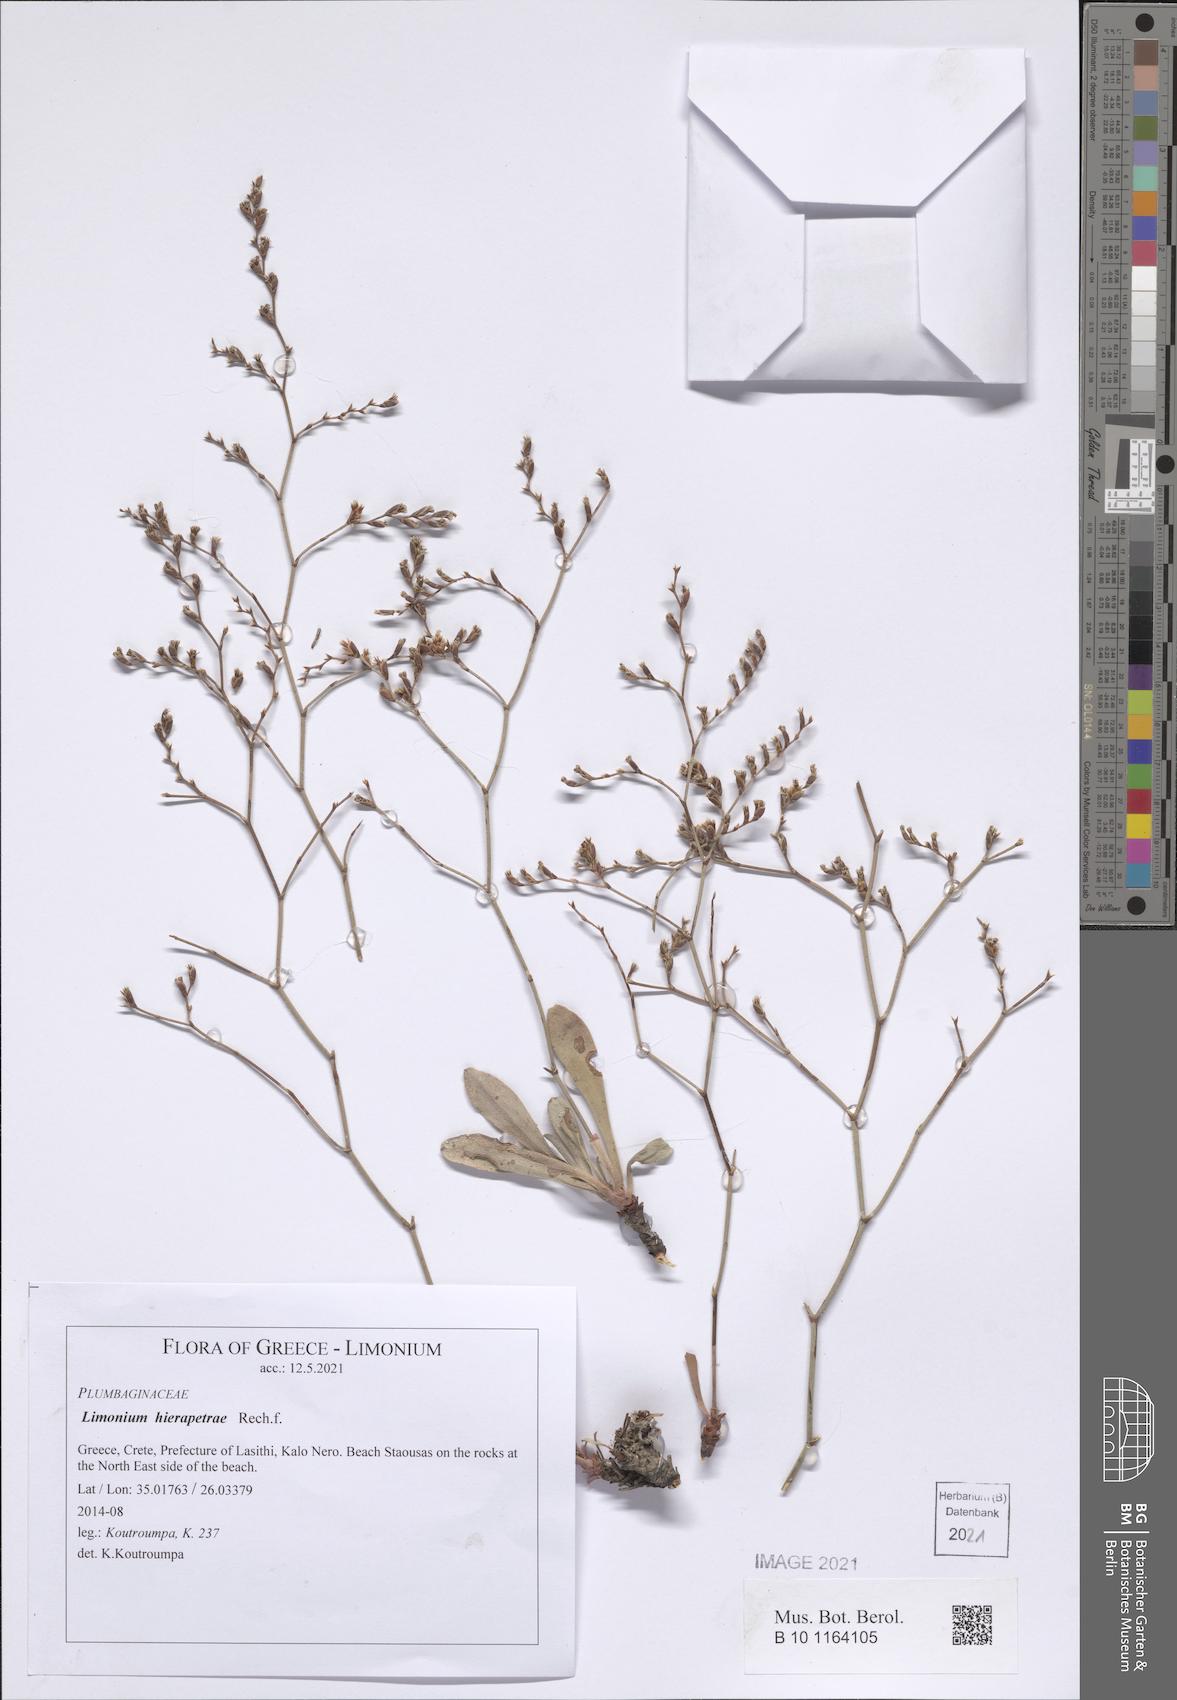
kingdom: Plantae
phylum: Tracheophyta
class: Magnoliopsida
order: Caryophyllales
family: Plumbaginaceae
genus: Limonium
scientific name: Limonium hierapetrae
